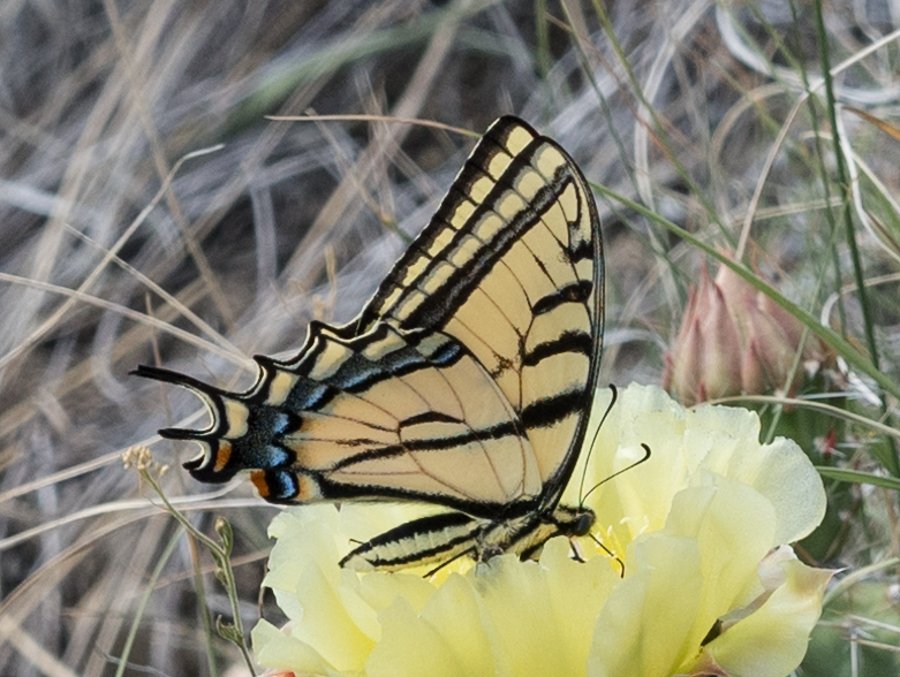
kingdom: Animalia
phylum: Arthropoda
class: Insecta
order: Lepidoptera
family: Papilionidae
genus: Papilio
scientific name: Papilio multicaudata
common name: Two-tailed Swallowtail
